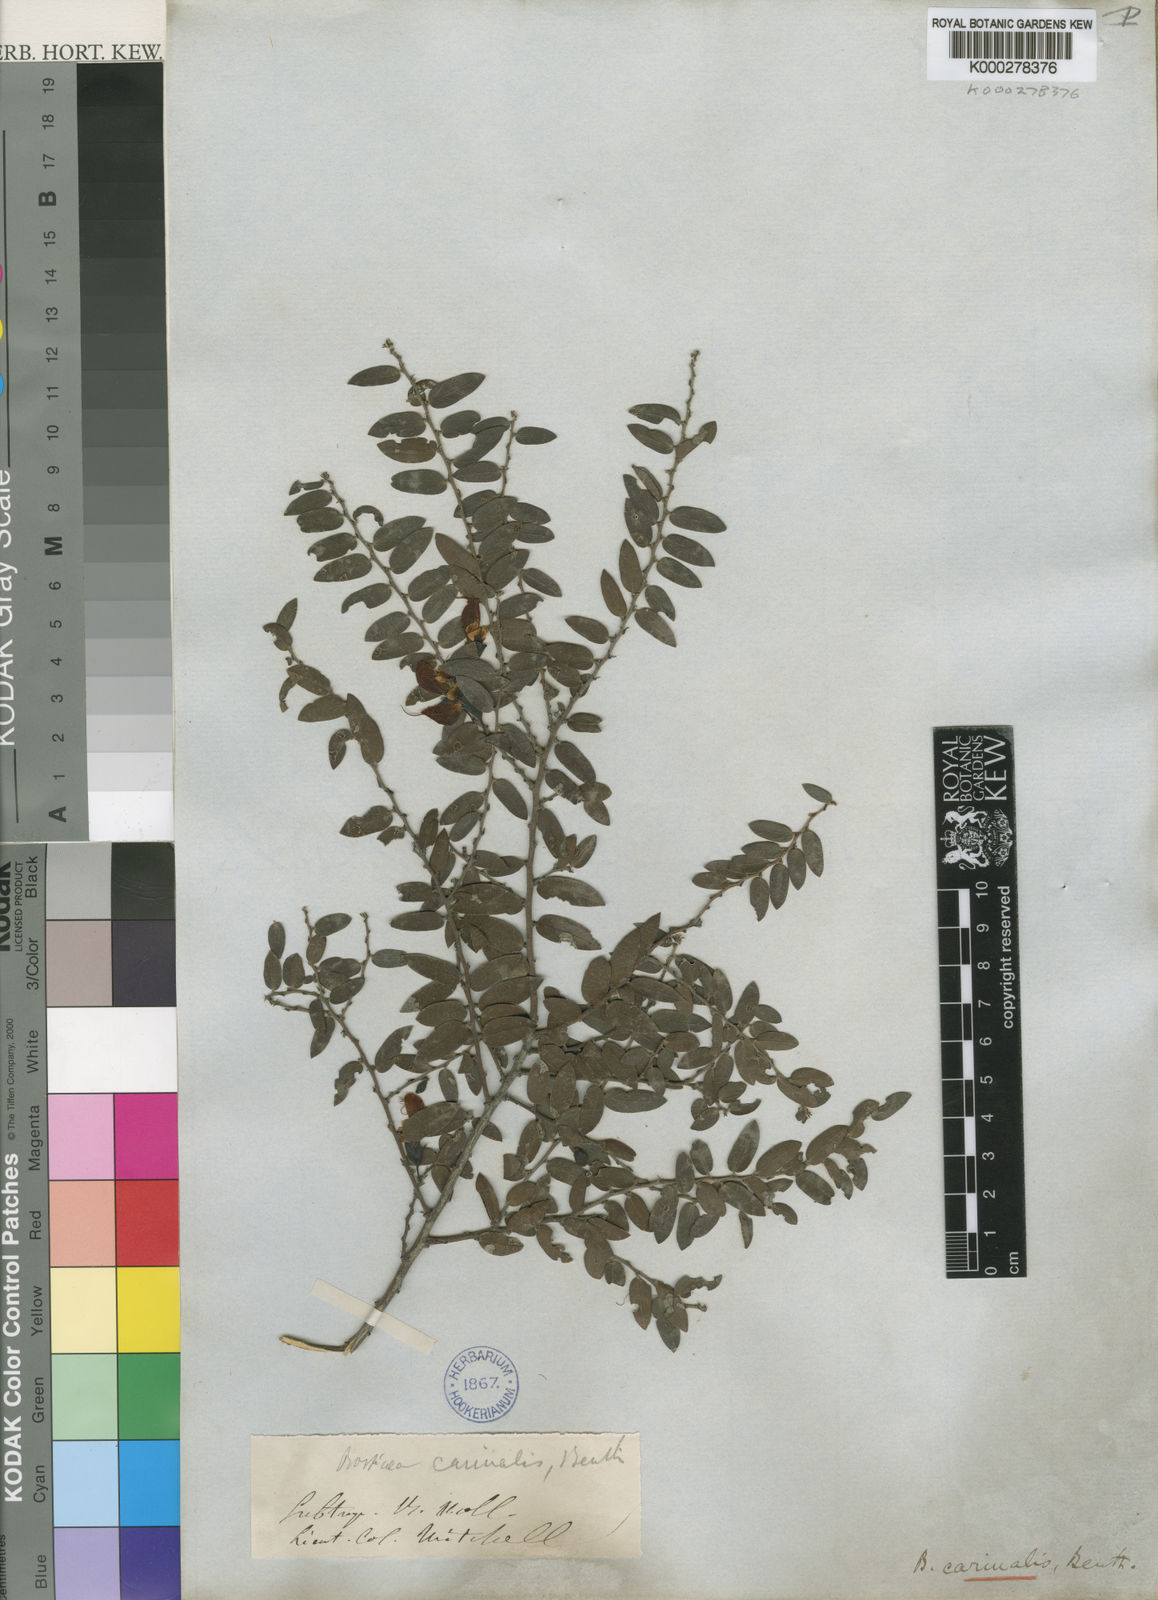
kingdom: Plantae
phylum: Tracheophyta
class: Magnoliopsida
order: Fabales
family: Fabaceae
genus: Bossiaea
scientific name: Bossiaea carinalis
